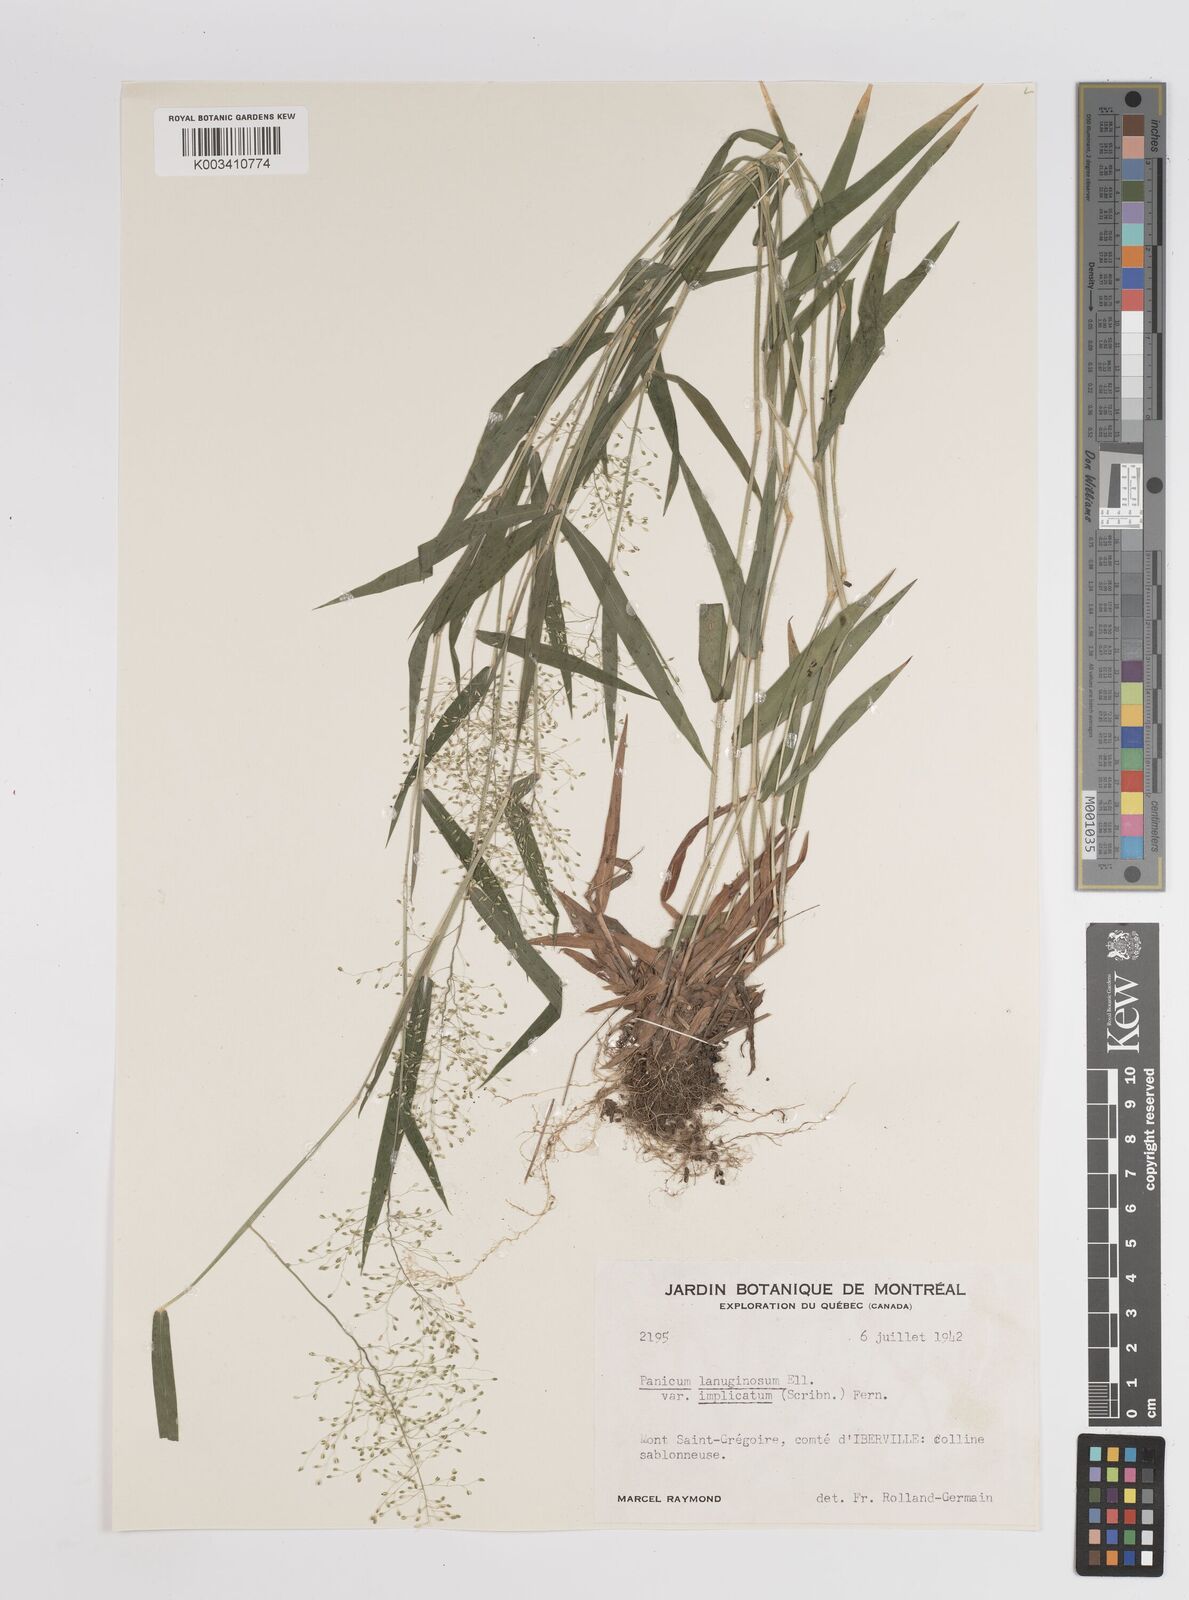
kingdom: Plantae
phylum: Tracheophyta
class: Liliopsida
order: Poales
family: Poaceae
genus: Dichanthelium
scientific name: Dichanthelium implicatum
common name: Slender-stemmed panicgrass
